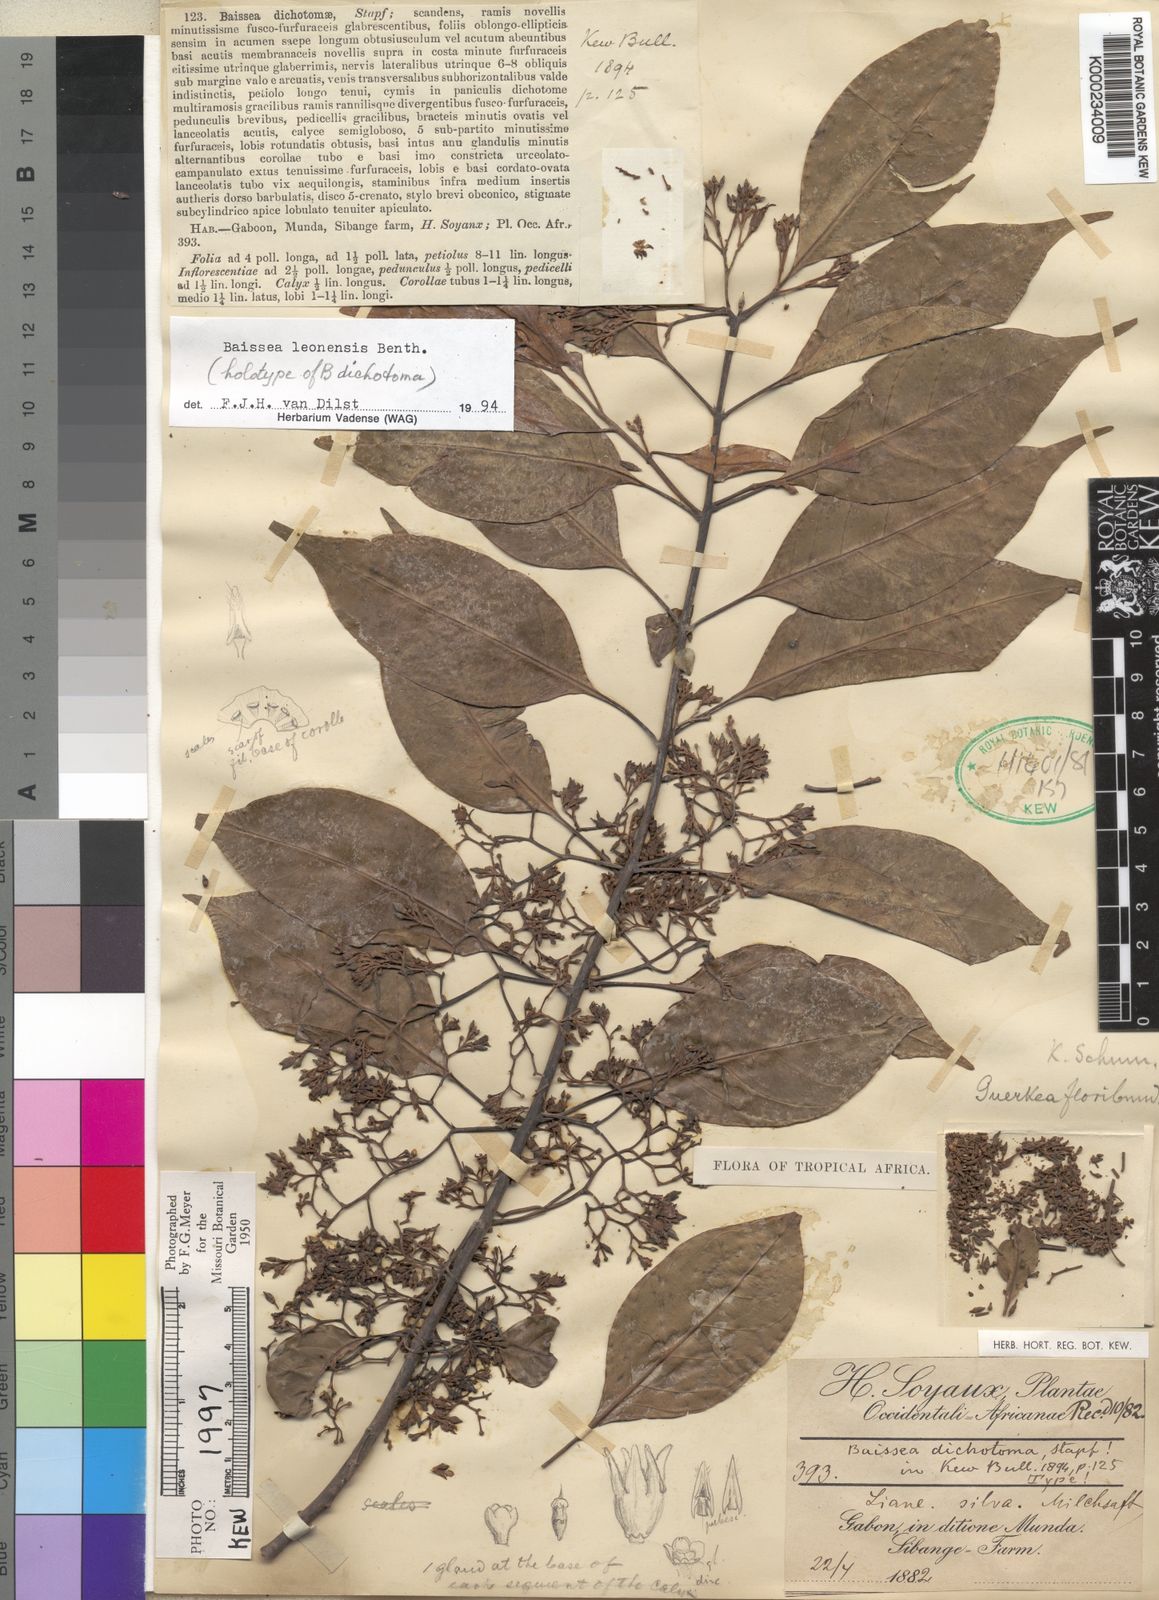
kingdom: Plantae
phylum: Tracheophyta
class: Magnoliopsida
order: Gentianales
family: Apocynaceae
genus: Baissea
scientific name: Baissea leonensis
